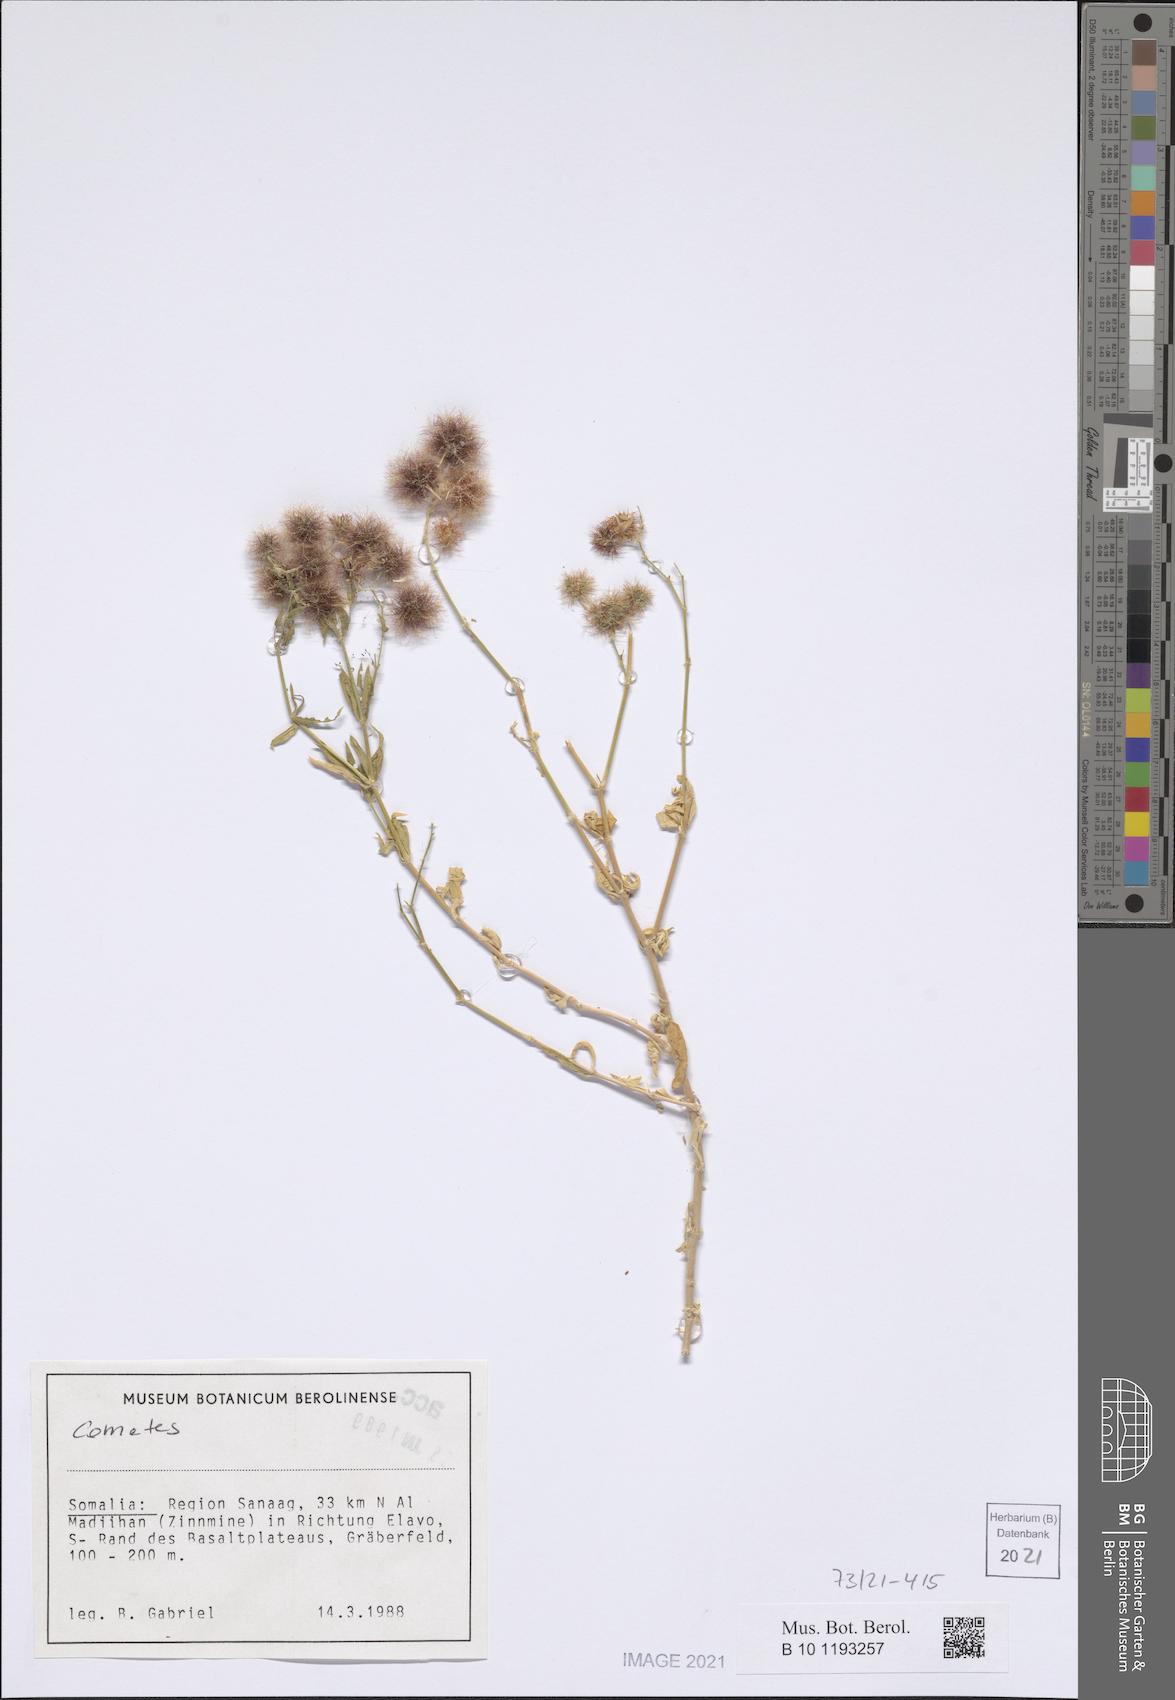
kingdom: Plantae
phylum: Tracheophyta
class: Magnoliopsida
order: Caryophyllales
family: Caryophyllaceae
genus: Cometes
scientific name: Cometes abyssinica
